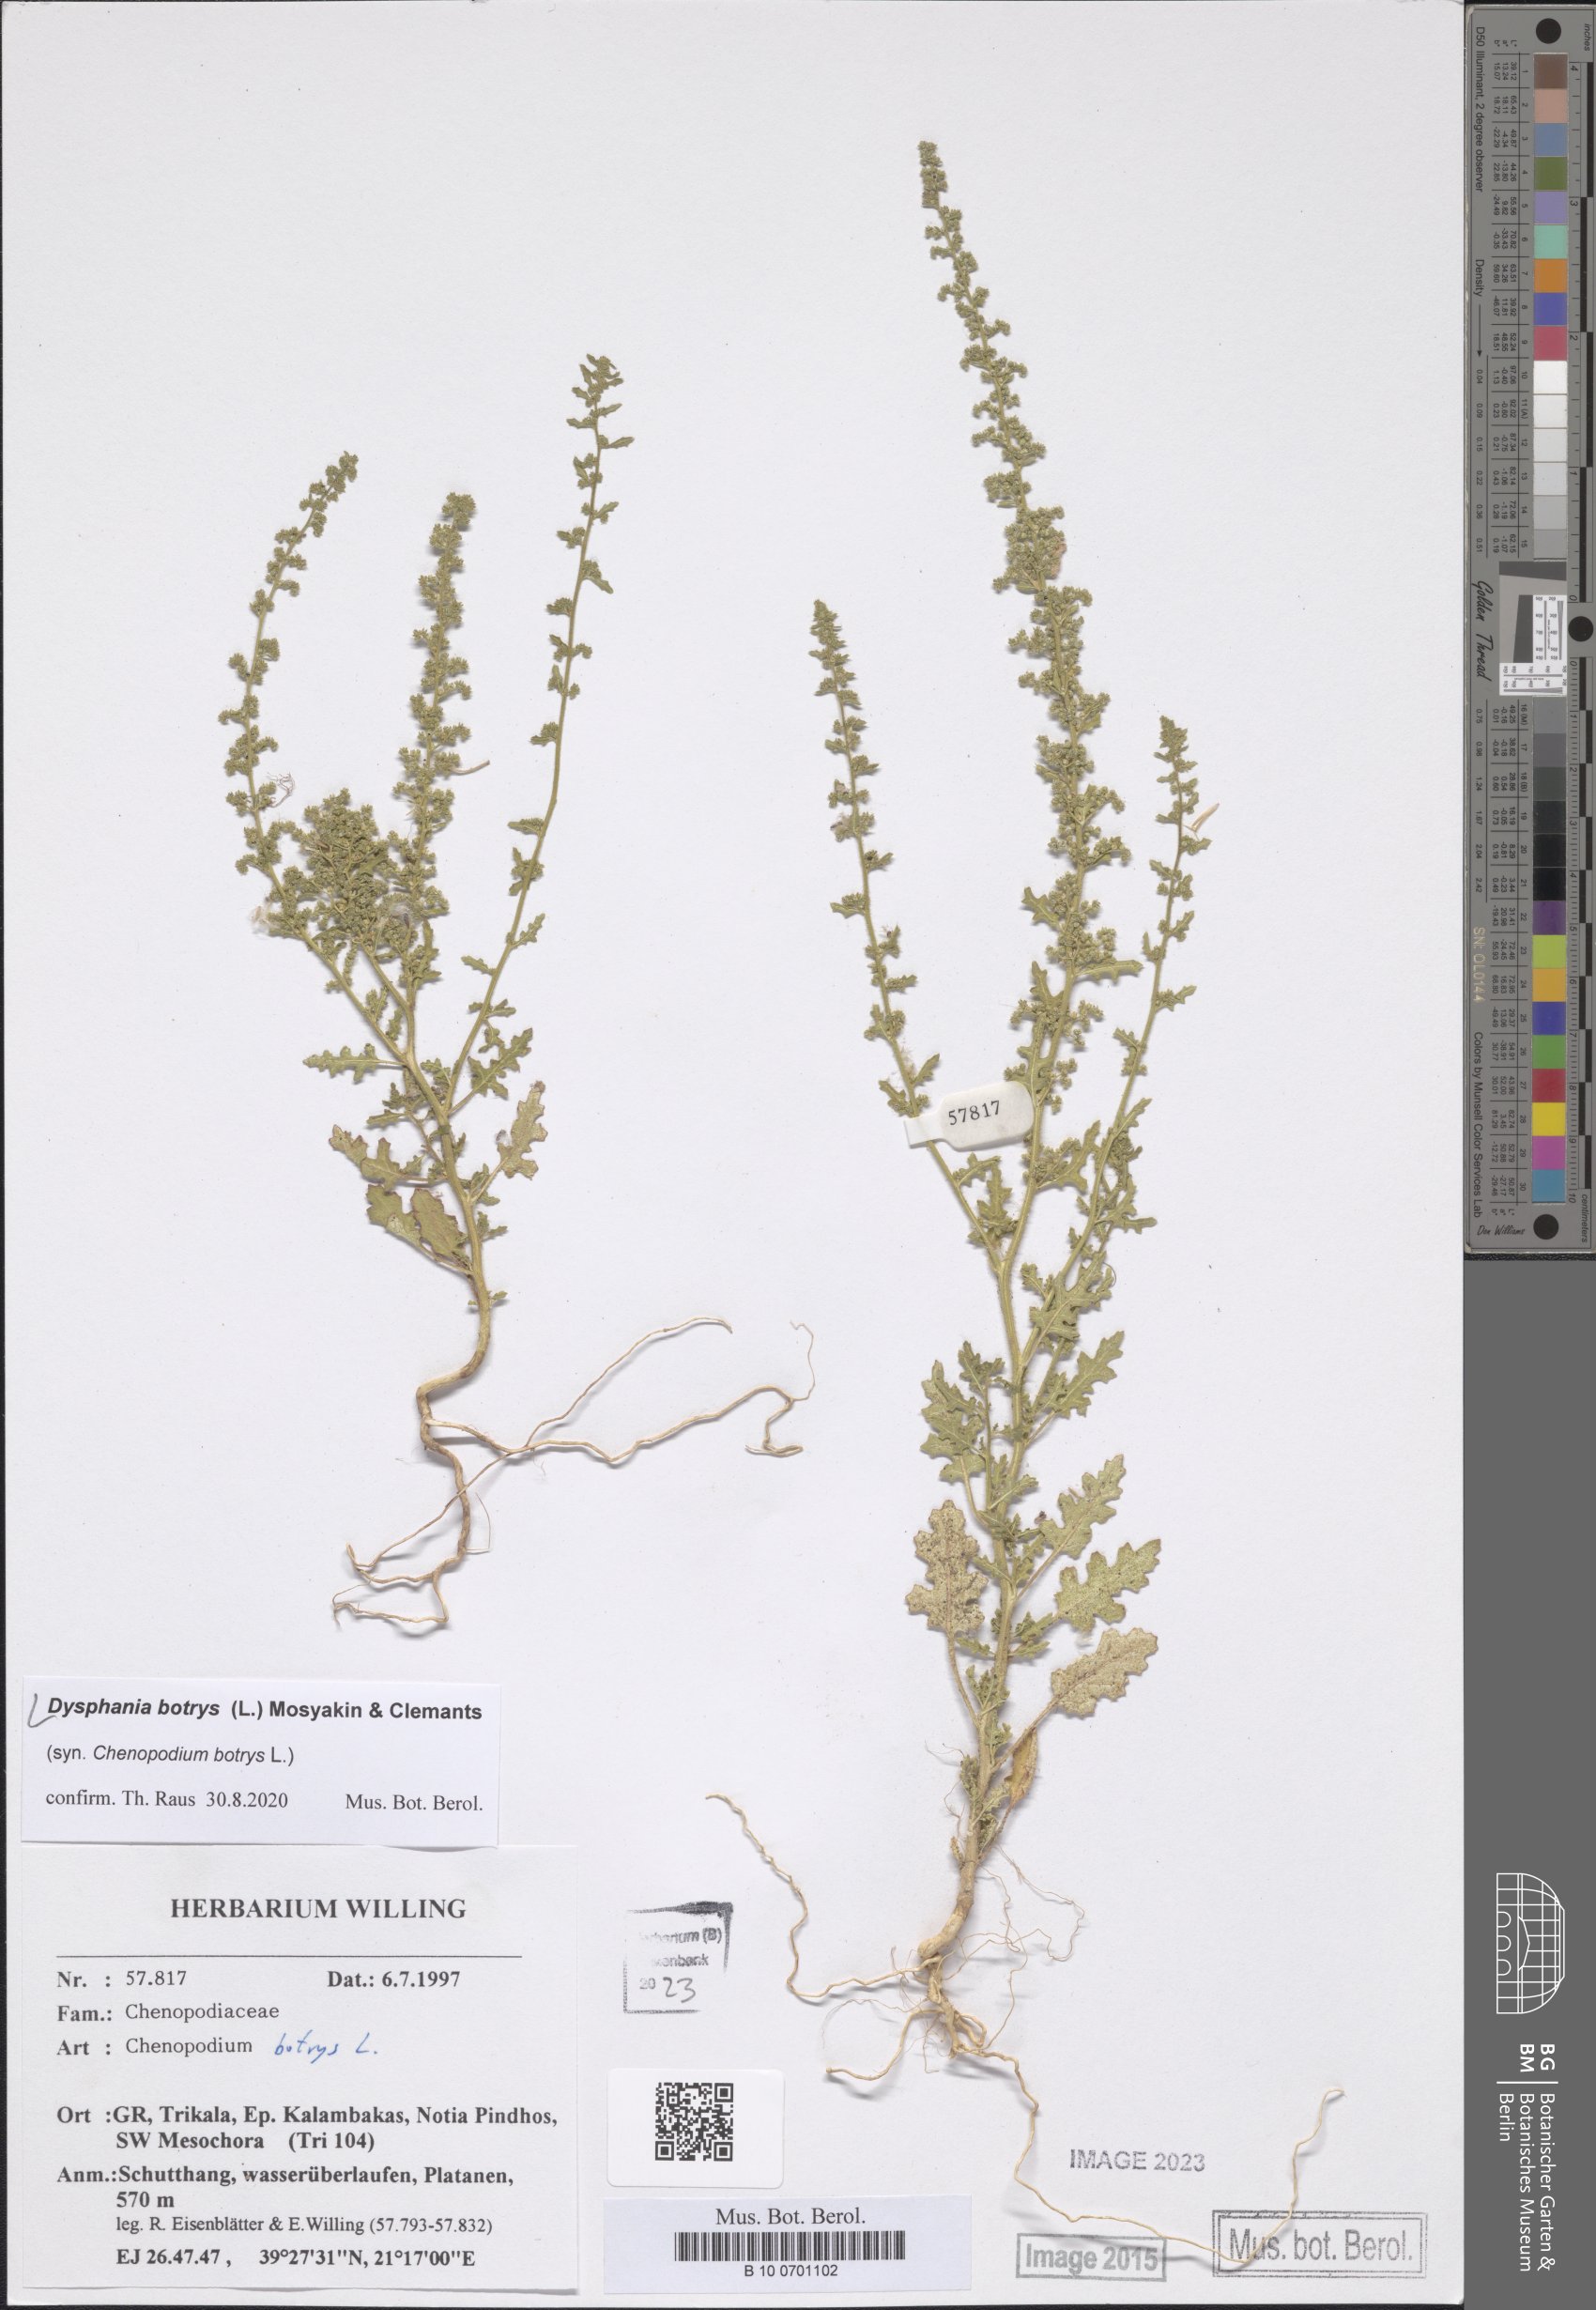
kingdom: Plantae
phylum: Tracheophyta
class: Magnoliopsida
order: Caryophyllales
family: Amaranthaceae
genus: Dysphania
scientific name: Dysphania botrys
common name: Feather-geranium
